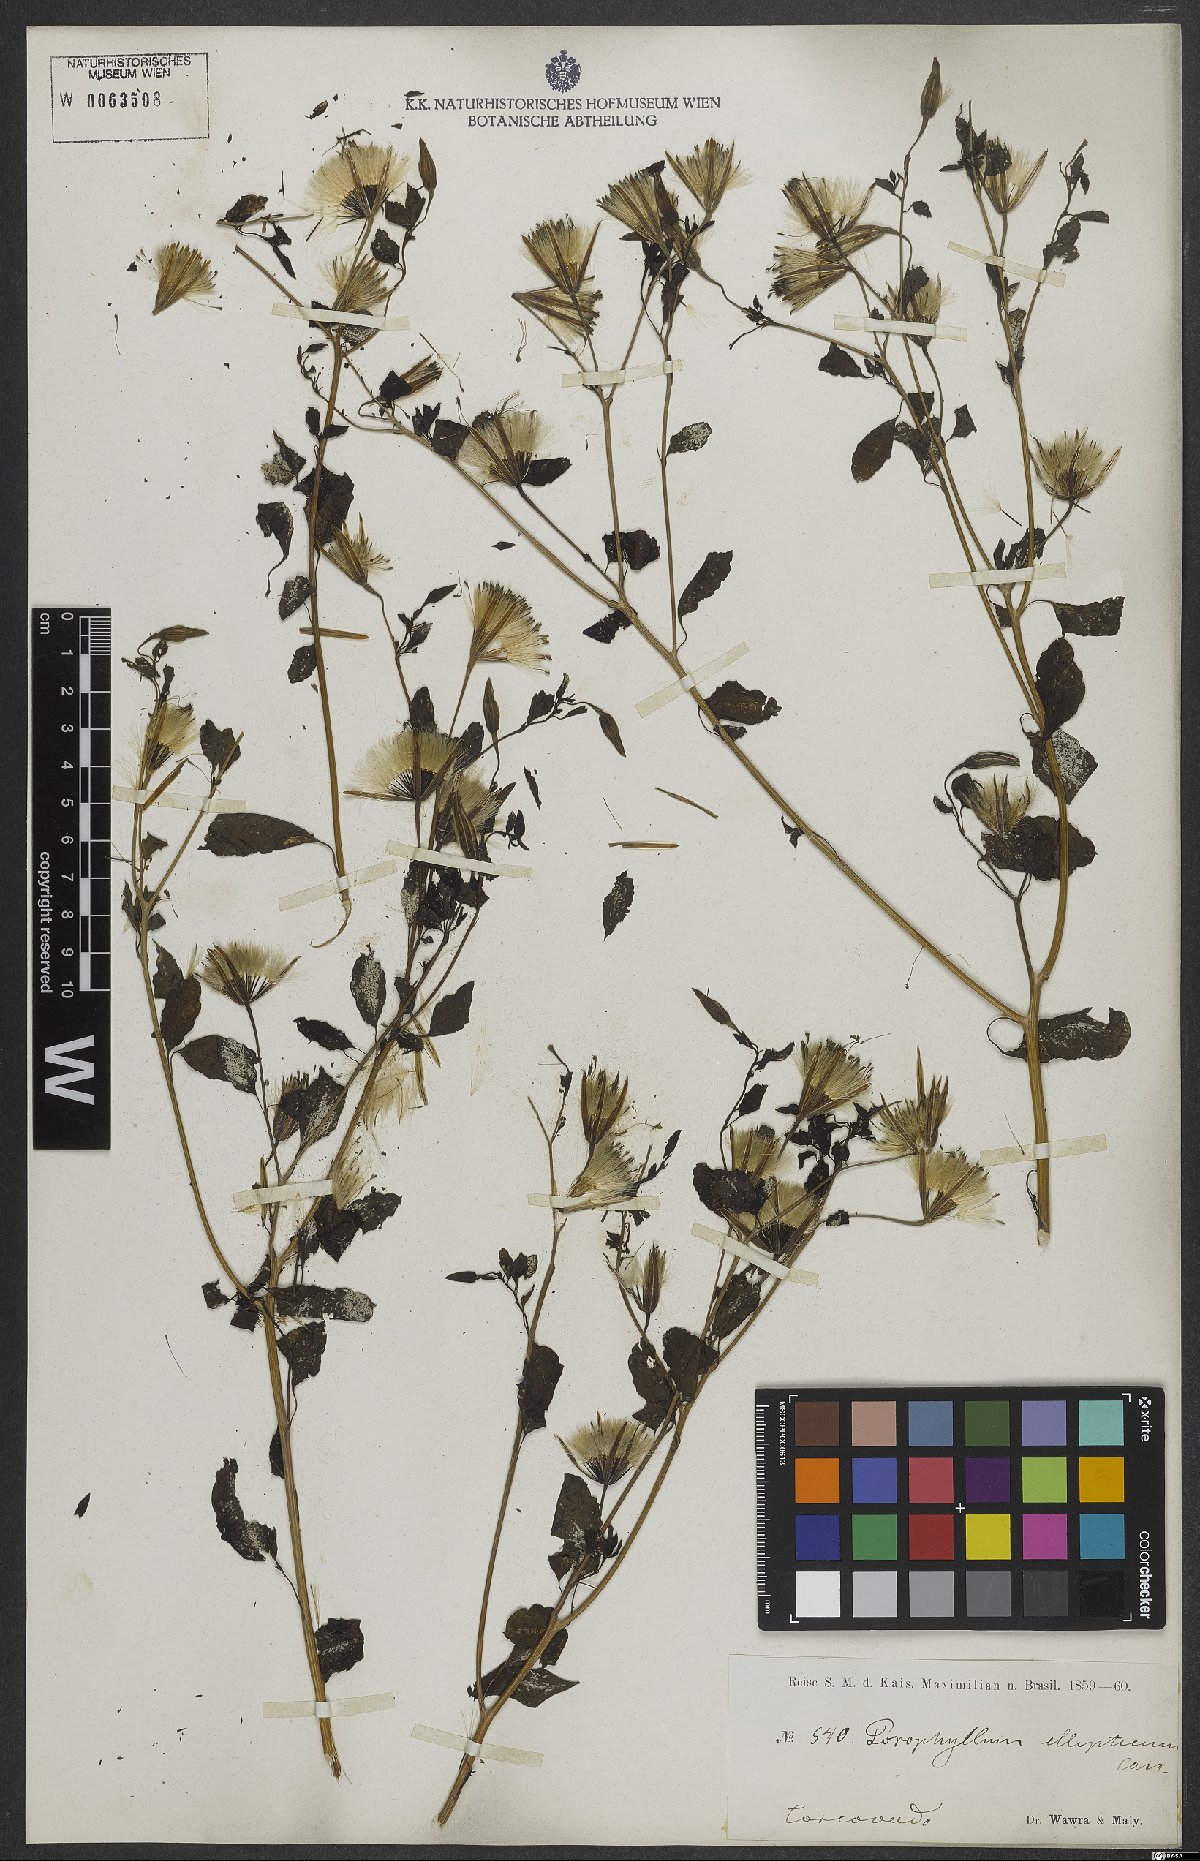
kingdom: Plantae
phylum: Tracheophyta
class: Magnoliopsida
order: Asterales
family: Asteraceae
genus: Porophyllum
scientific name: Porophyllum ruderale
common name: Yerba porosa
